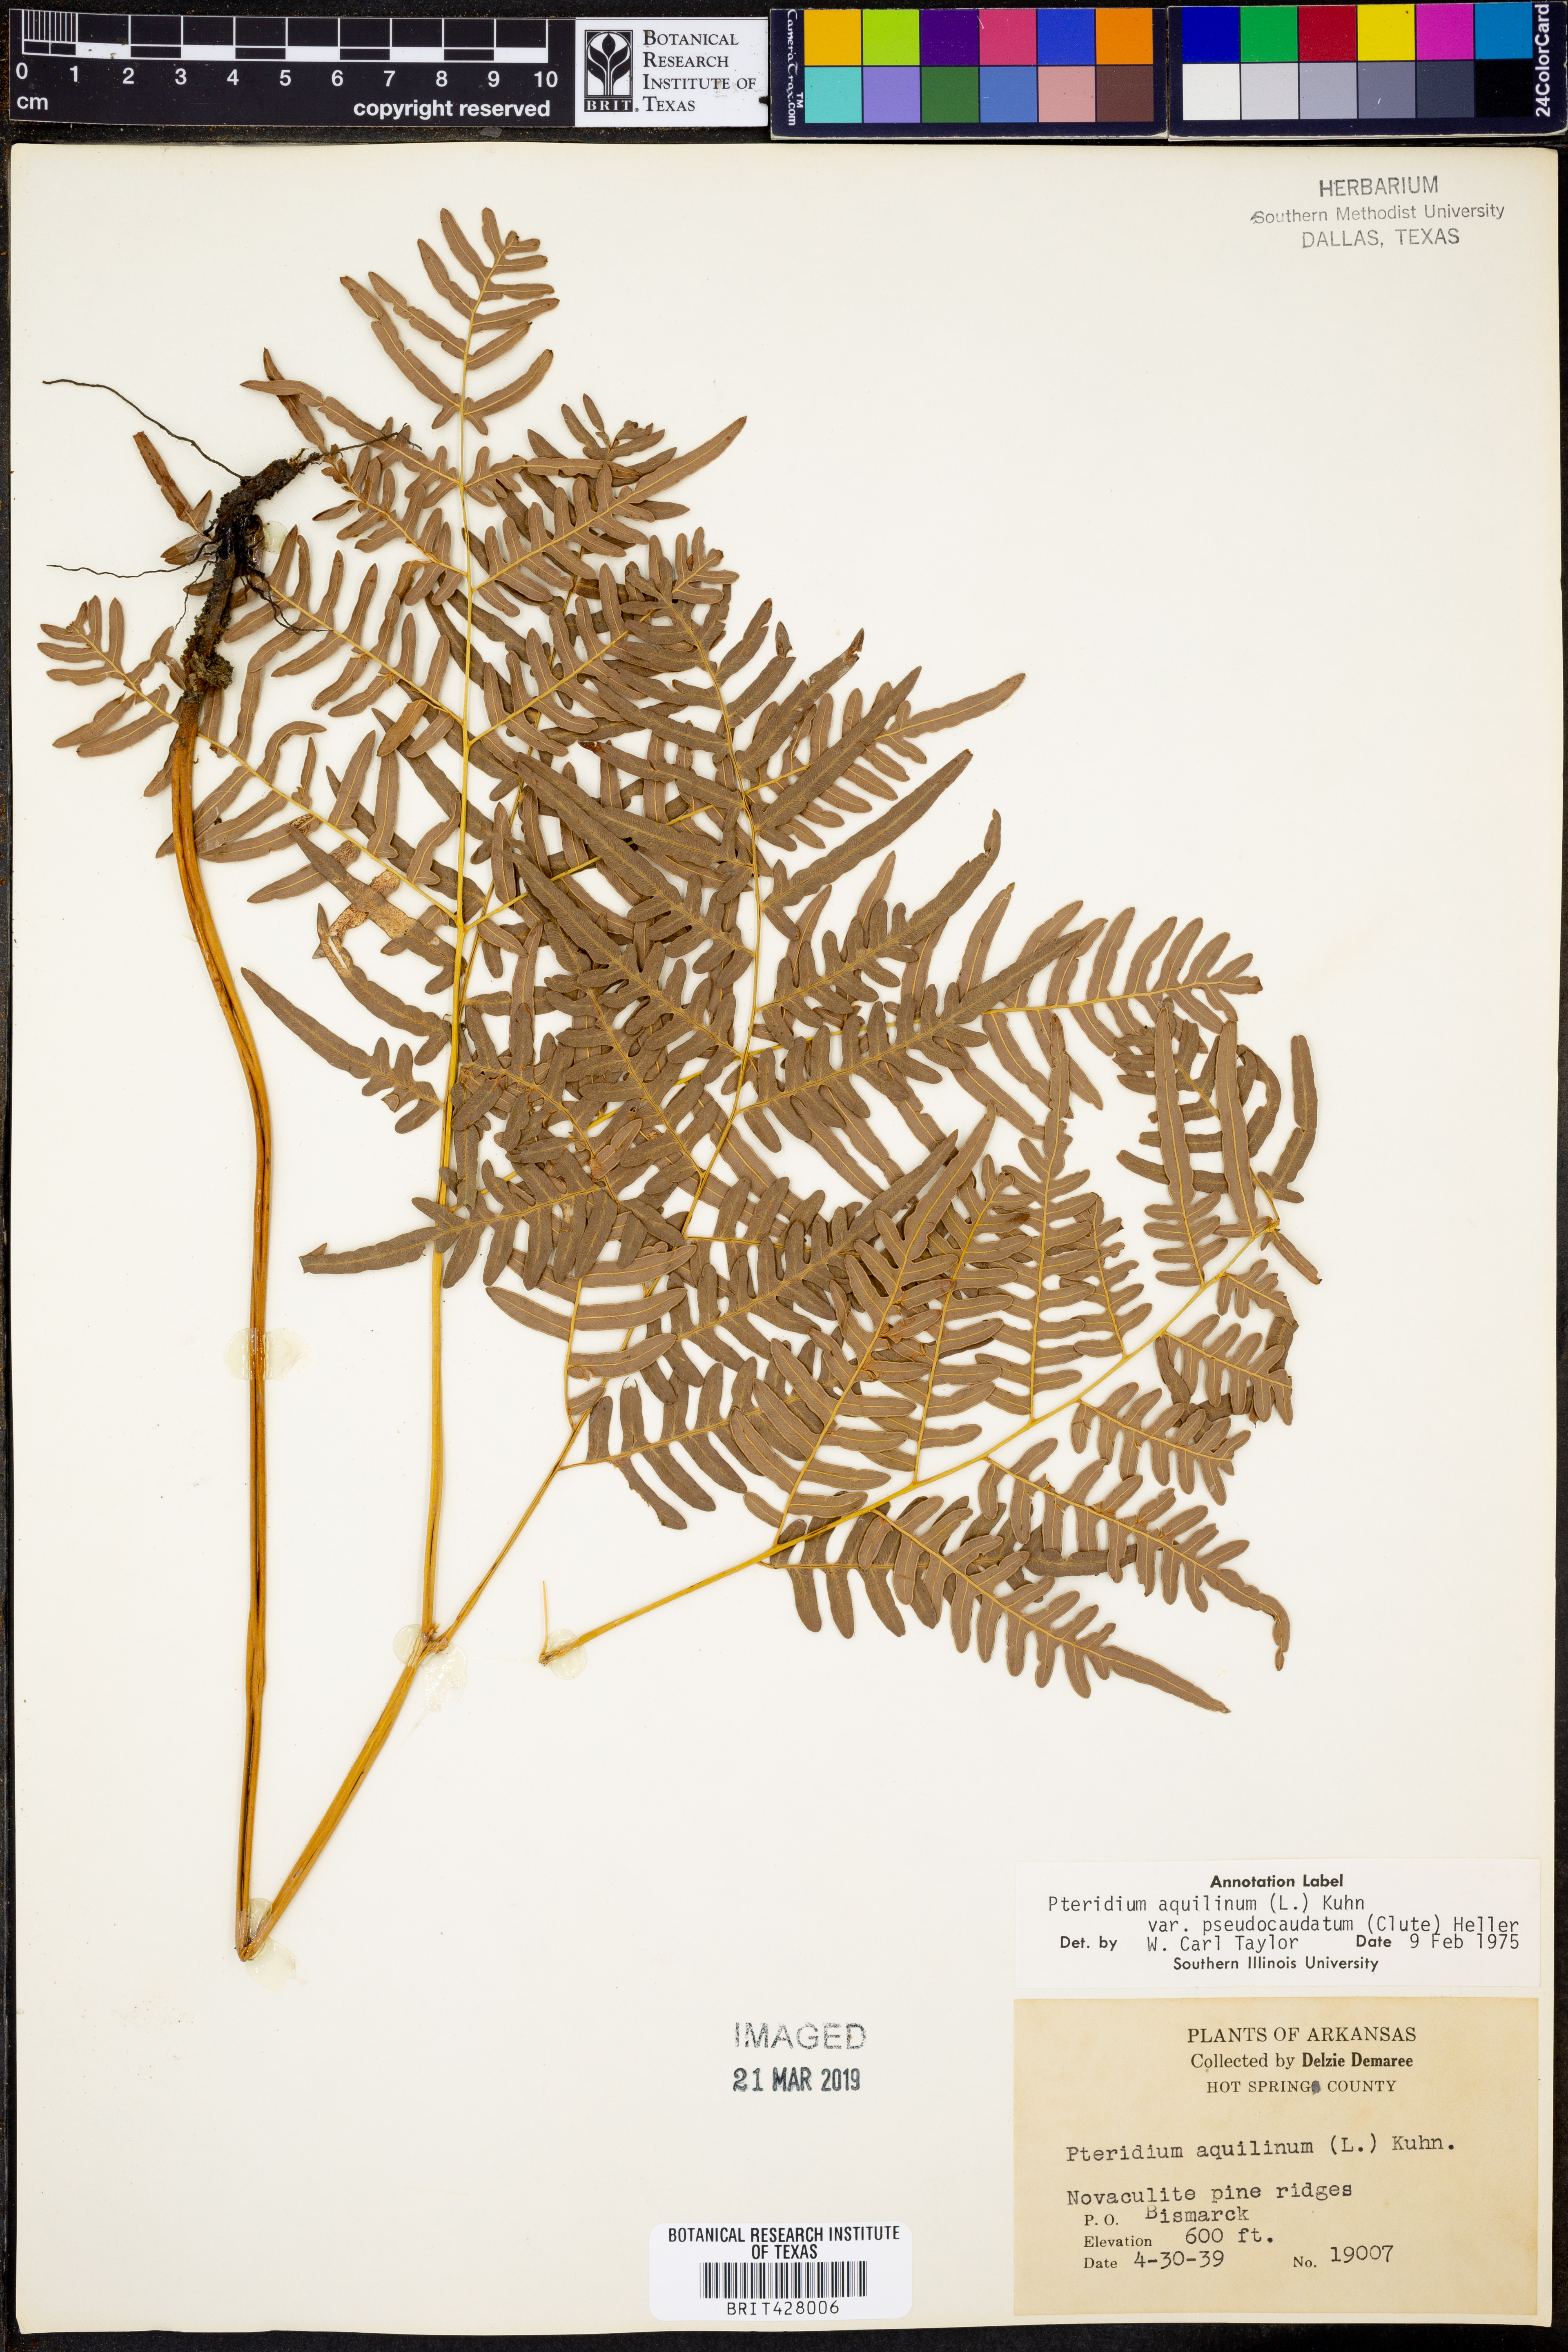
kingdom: Plantae
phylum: Tracheophyta
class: Polypodiopsida
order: Polypodiales
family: Dennstaedtiaceae
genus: Pteridium
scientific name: Pteridium aquilinum
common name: Bracken
